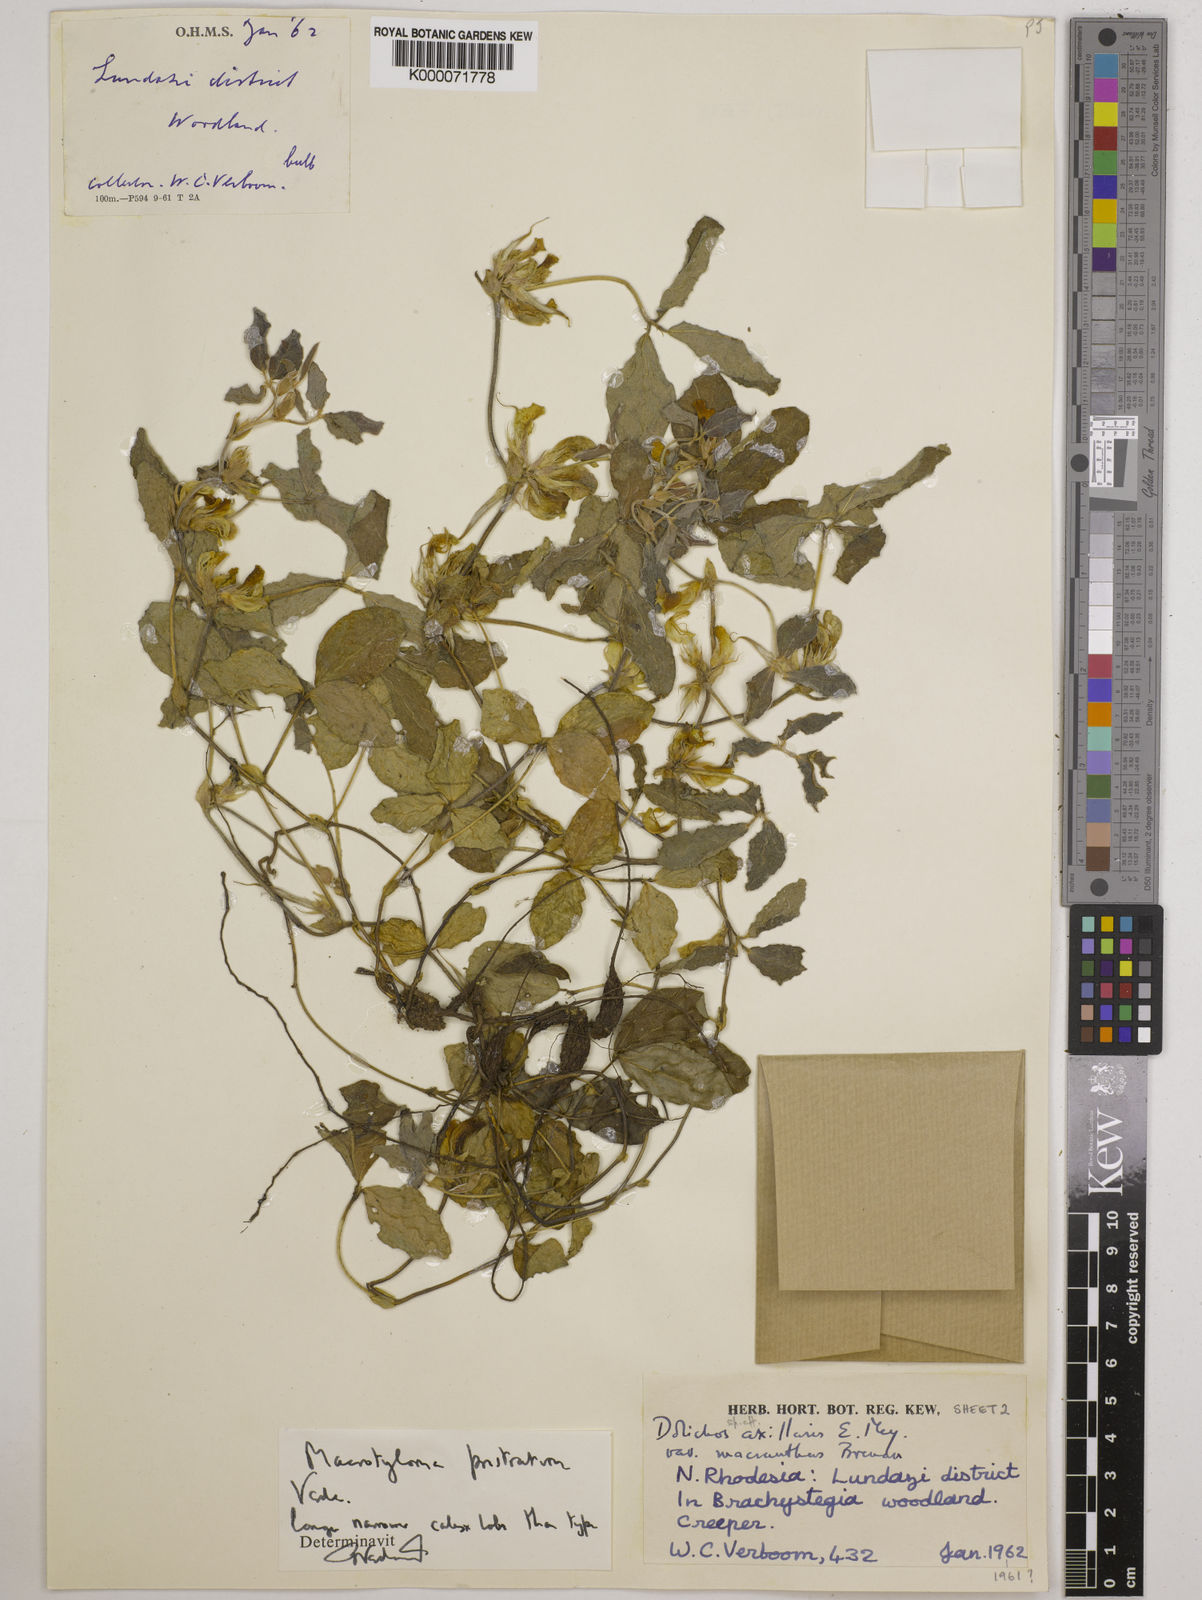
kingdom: Plantae
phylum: Tracheophyta
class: Magnoliopsida
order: Fabales
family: Fabaceae
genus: Macrotyloma
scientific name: Macrotyloma prostratum
